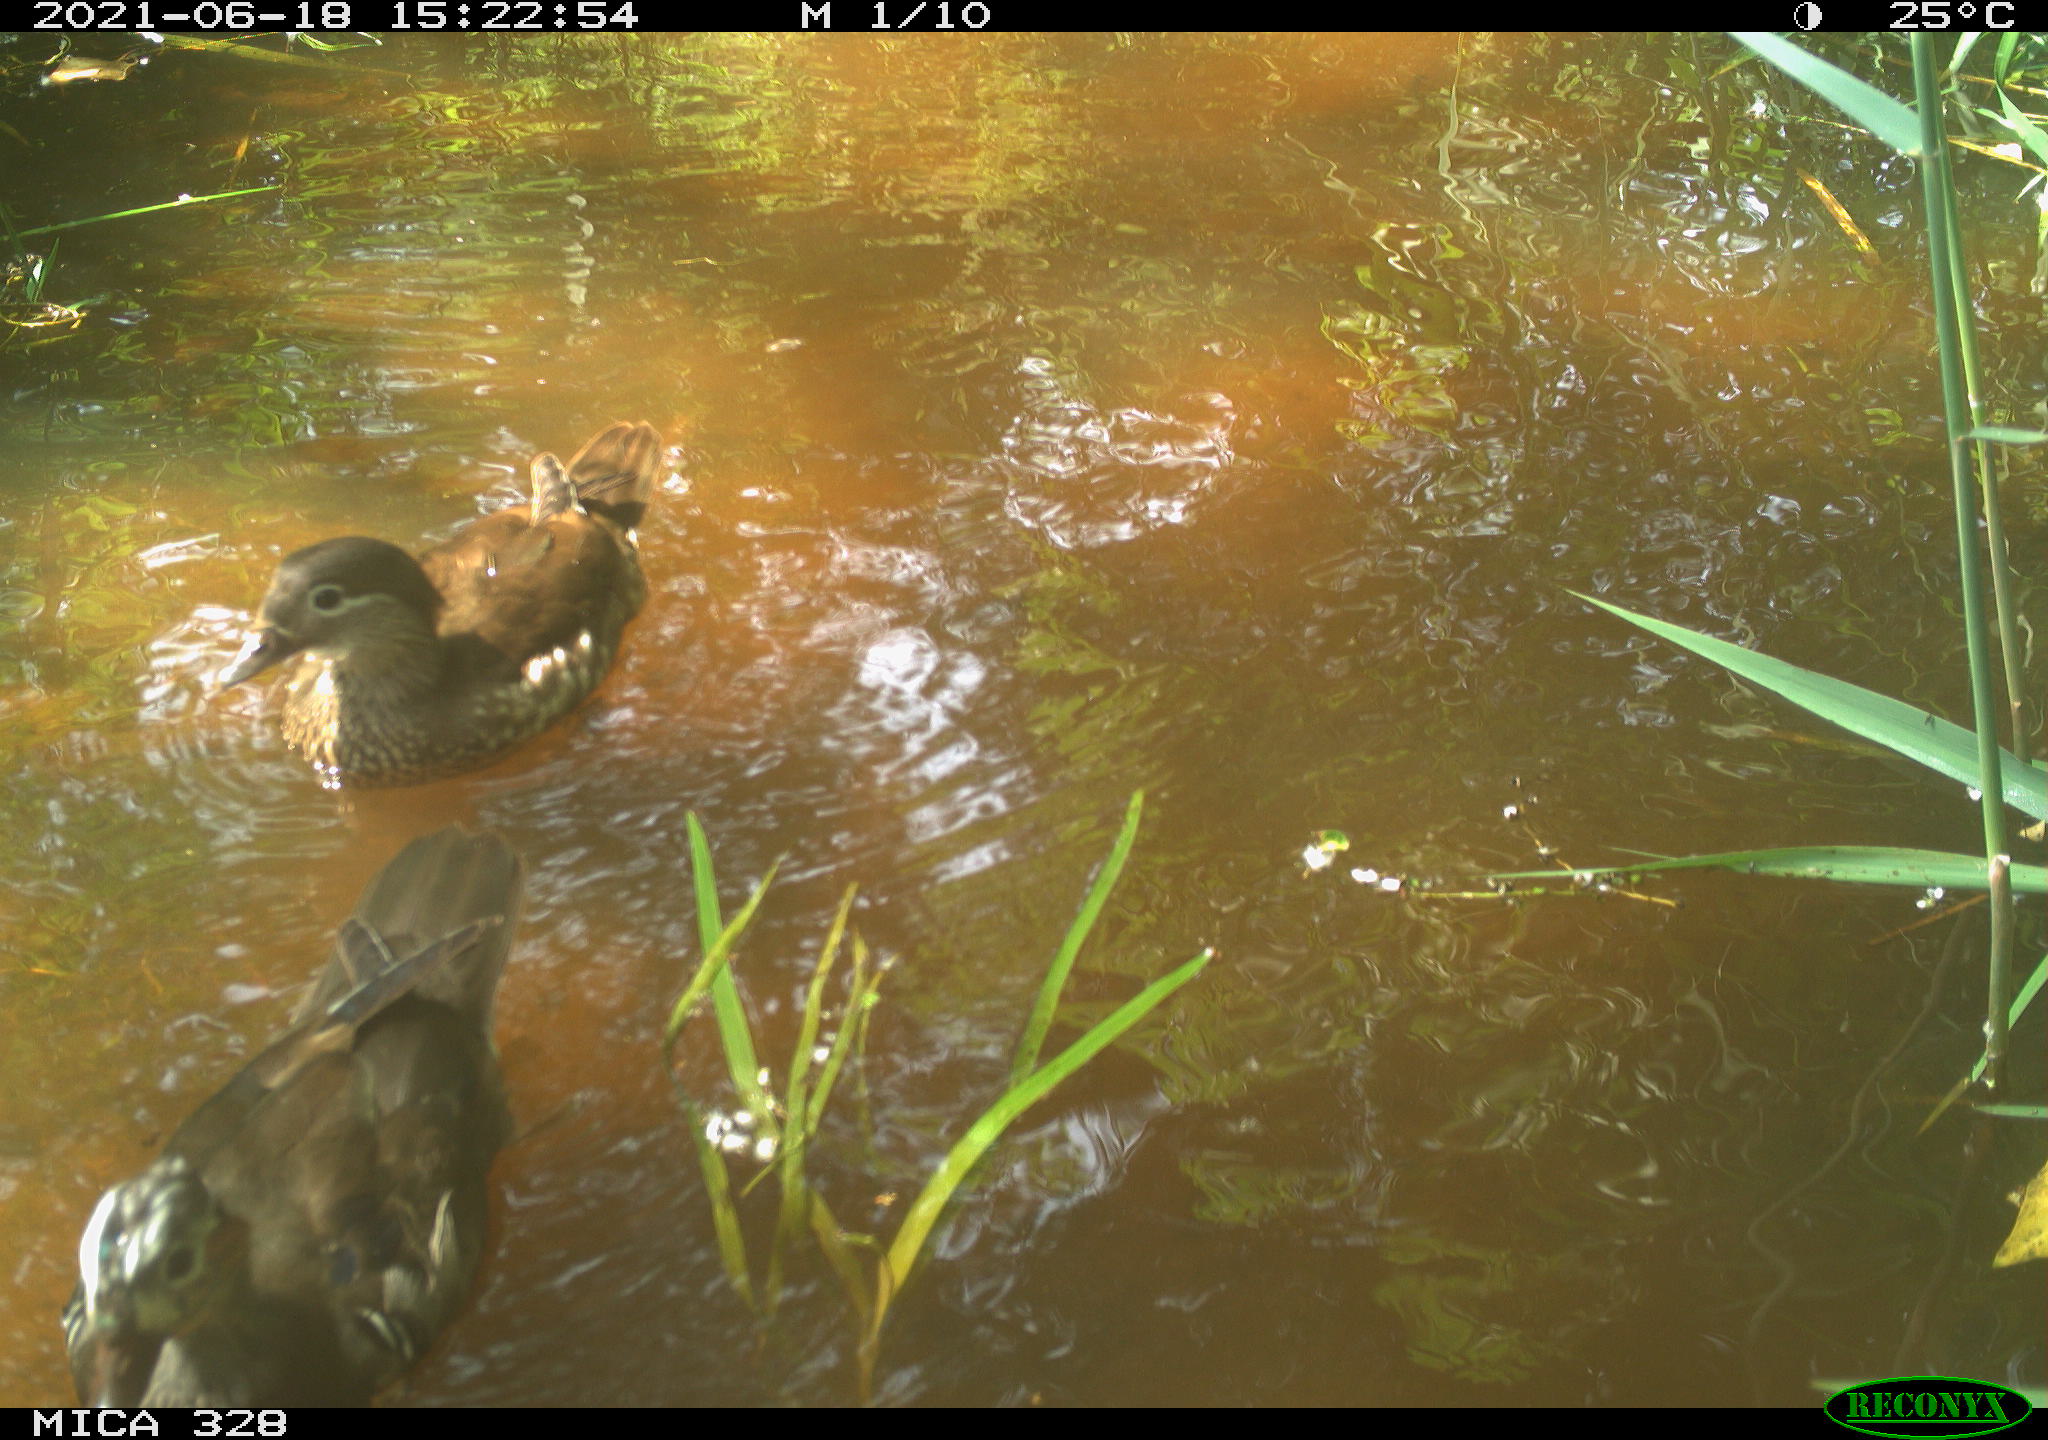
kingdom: Animalia
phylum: Chordata
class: Aves
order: Anseriformes
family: Anatidae
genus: Aix
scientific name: Aix galericulata
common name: Mandarin duck
